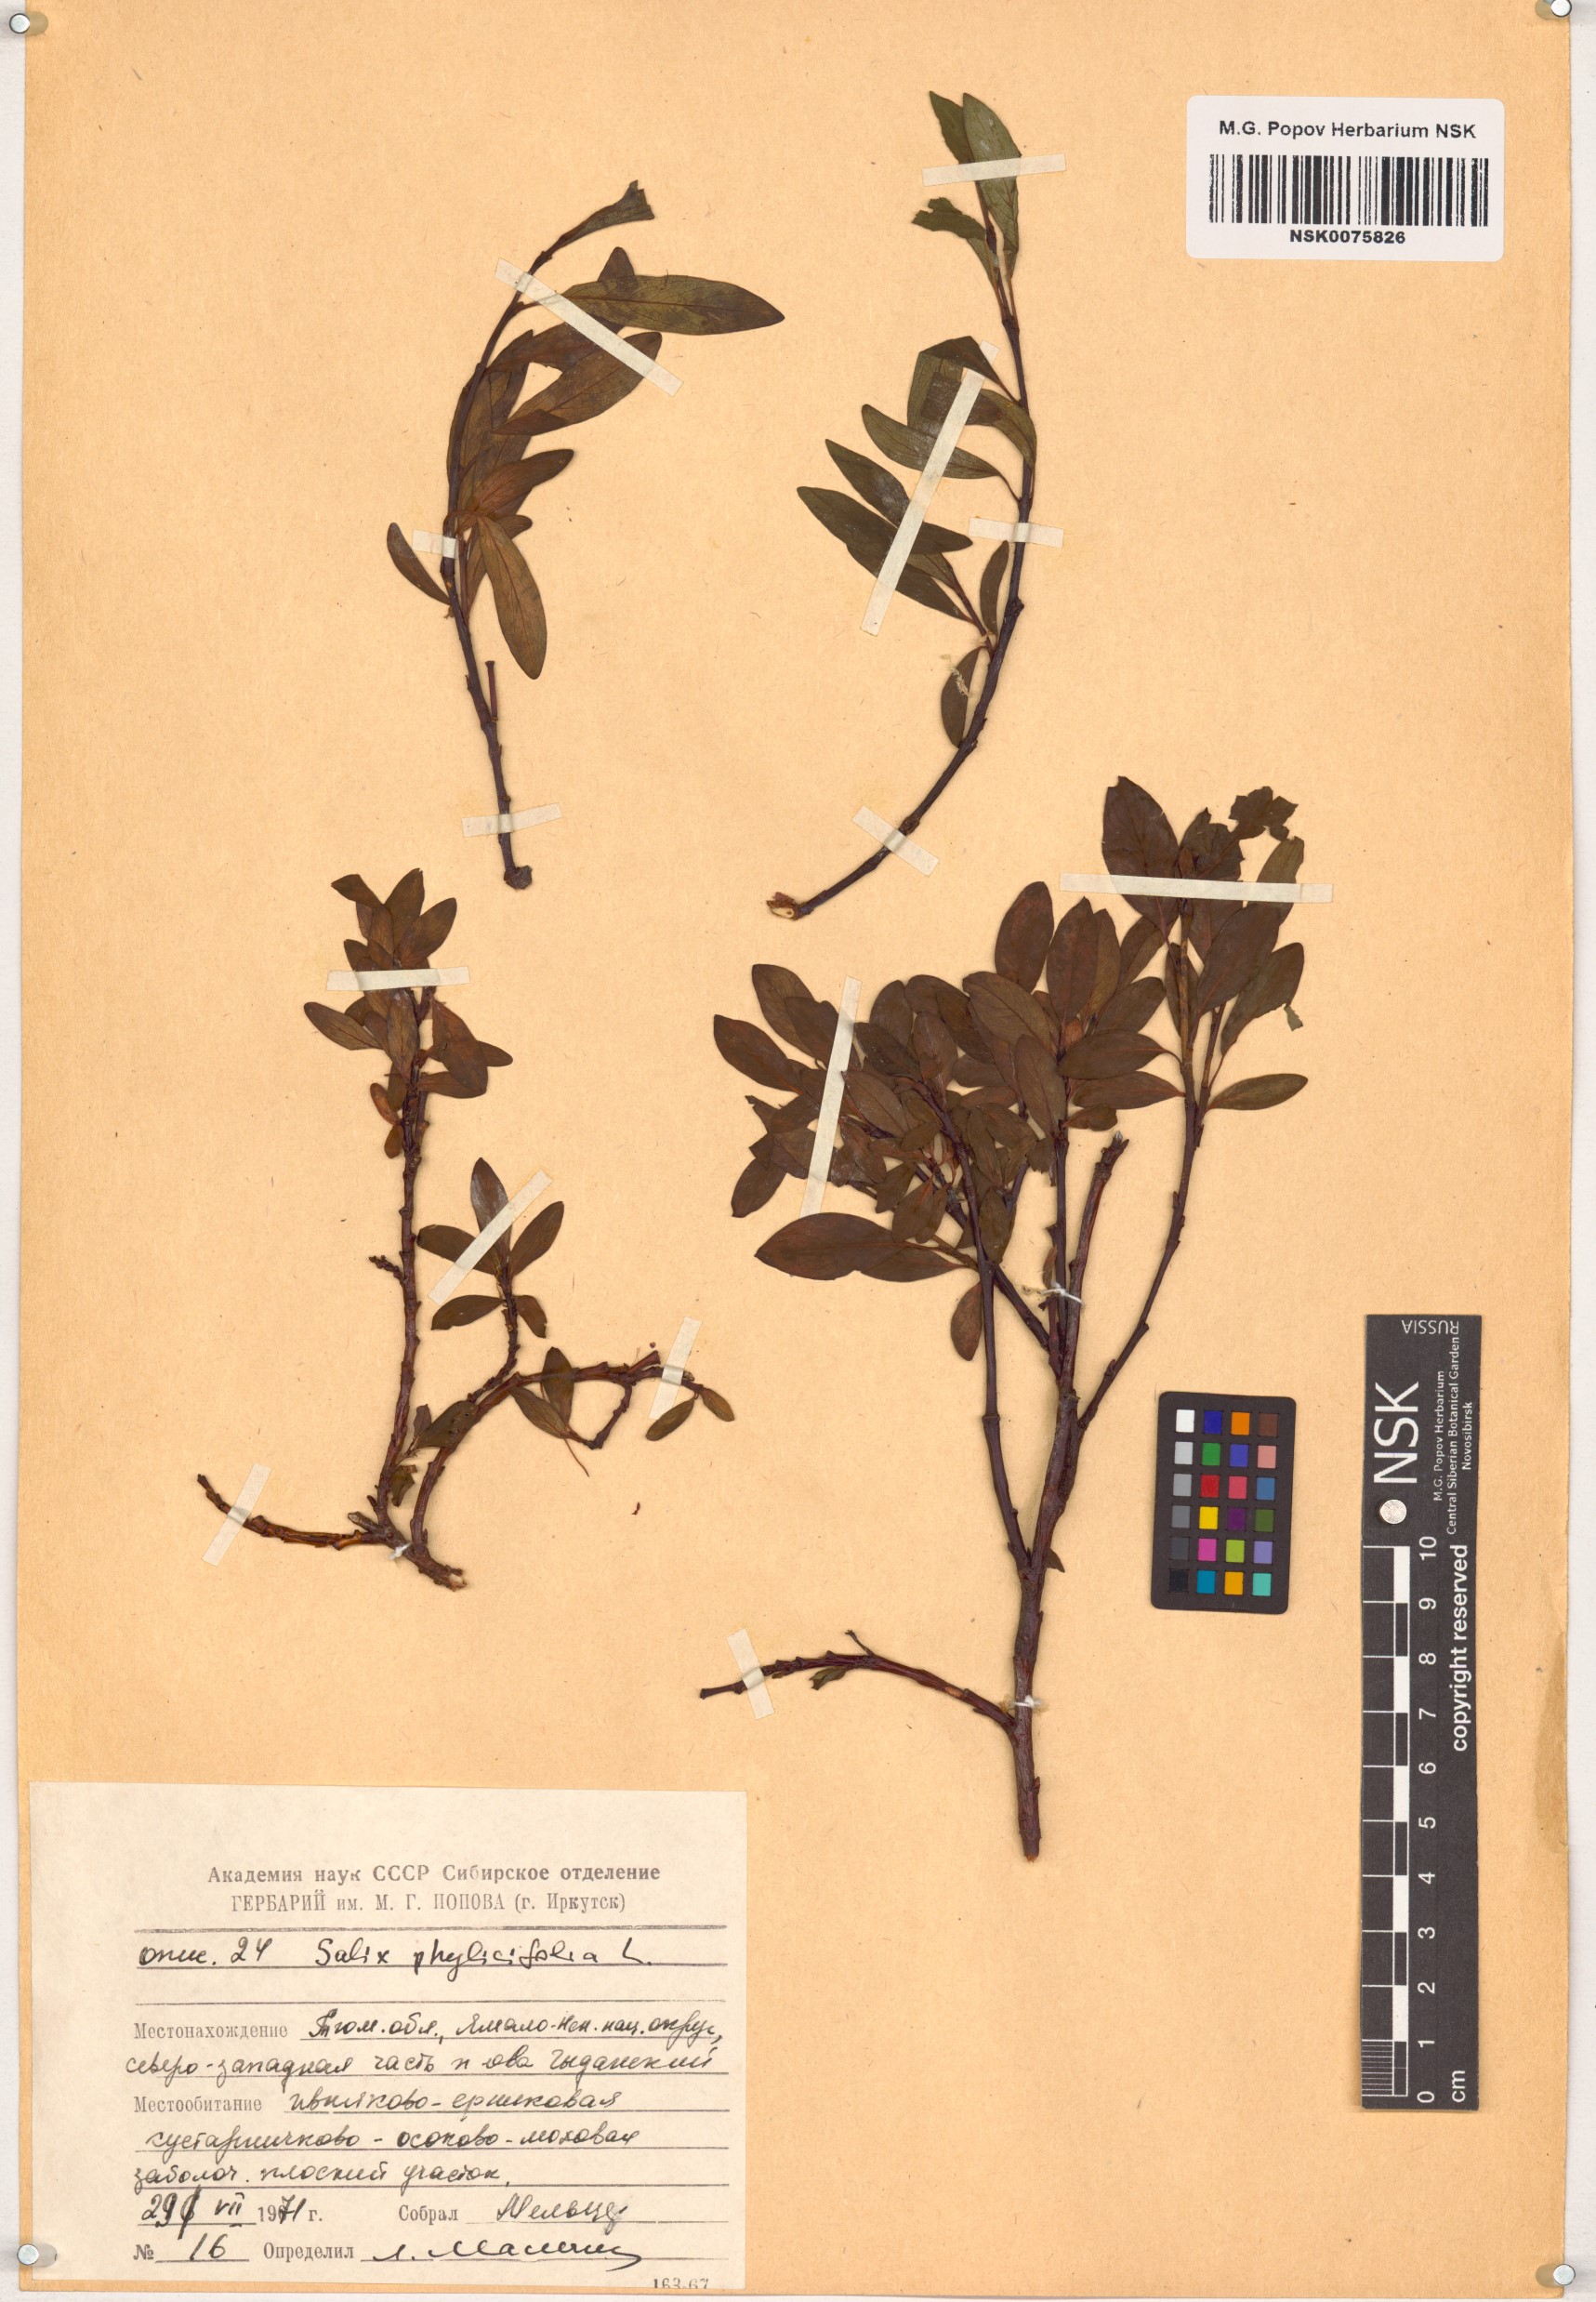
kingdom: Plantae
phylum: Tracheophyta
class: Magnoliopsida
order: Malpighiales
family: Salicaceae
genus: Salix
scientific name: Salix phylicifolia
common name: Tea-leaved willow
